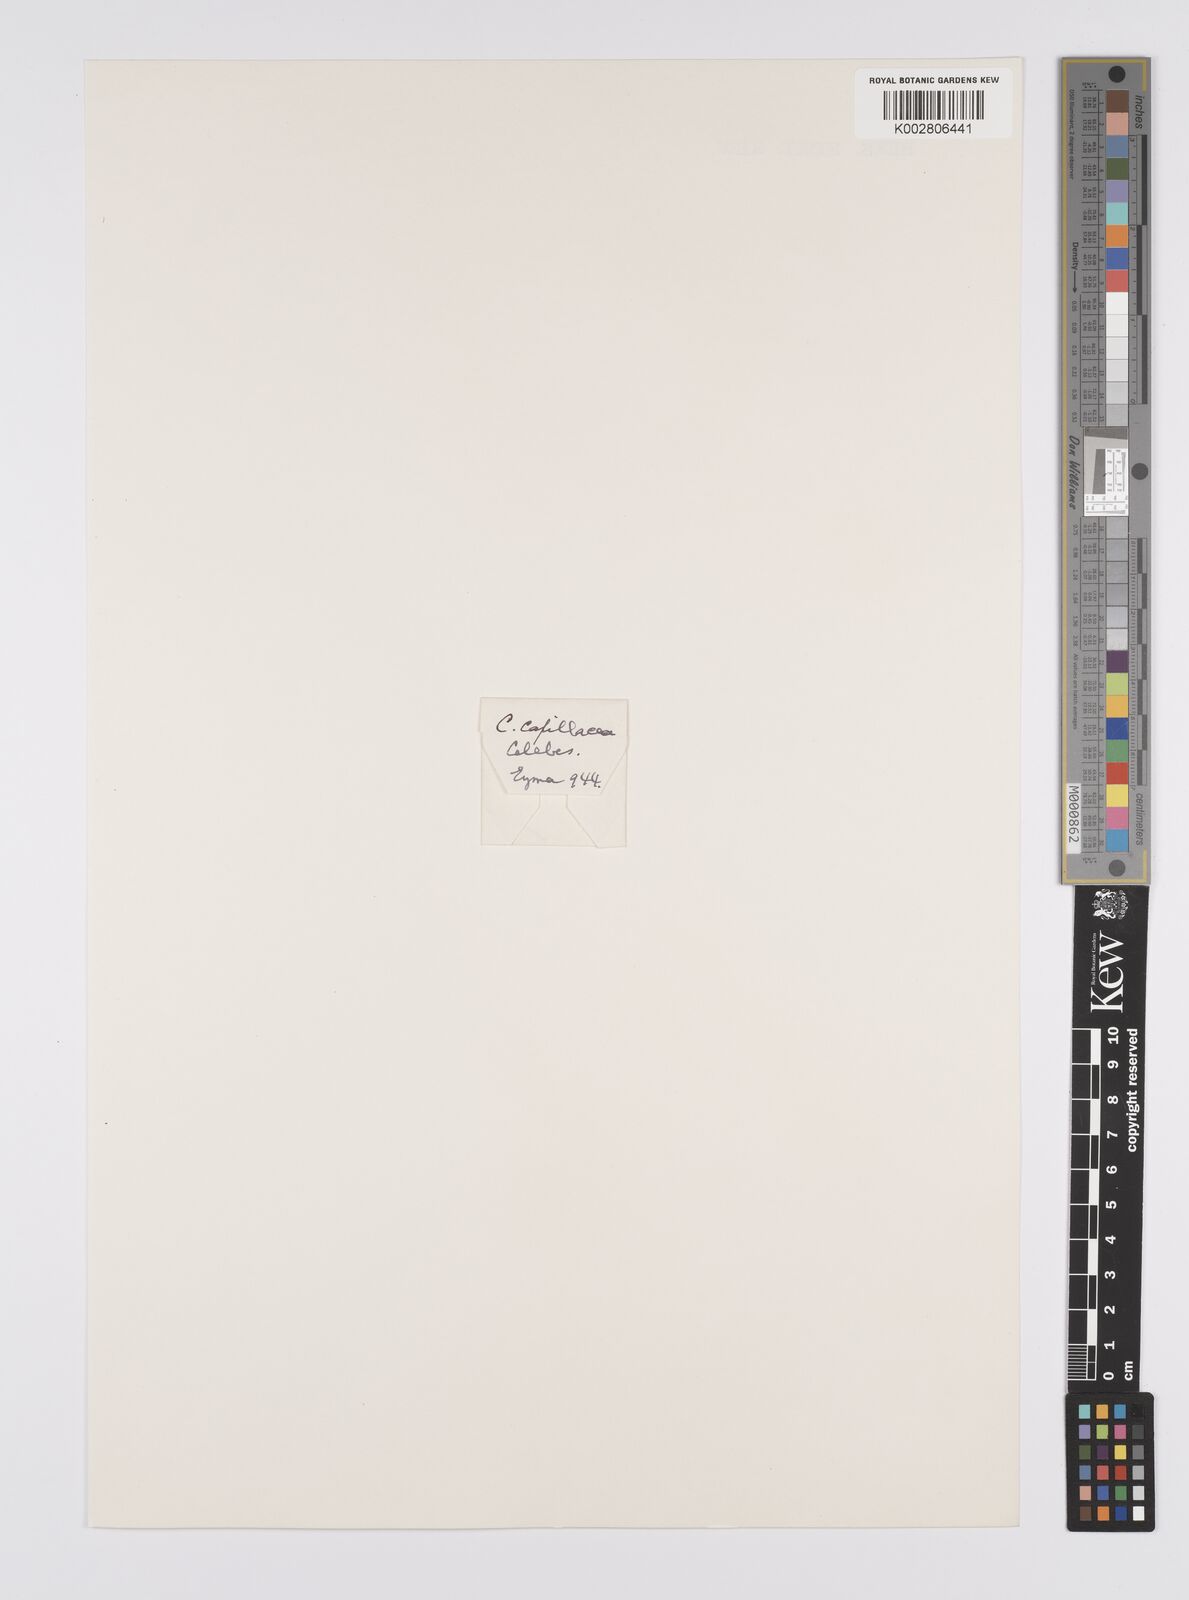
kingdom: Plantae
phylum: Tracheophyta
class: Liliopsida
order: Poales
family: Cyperaceae
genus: Carex
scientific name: Carex capillacea
